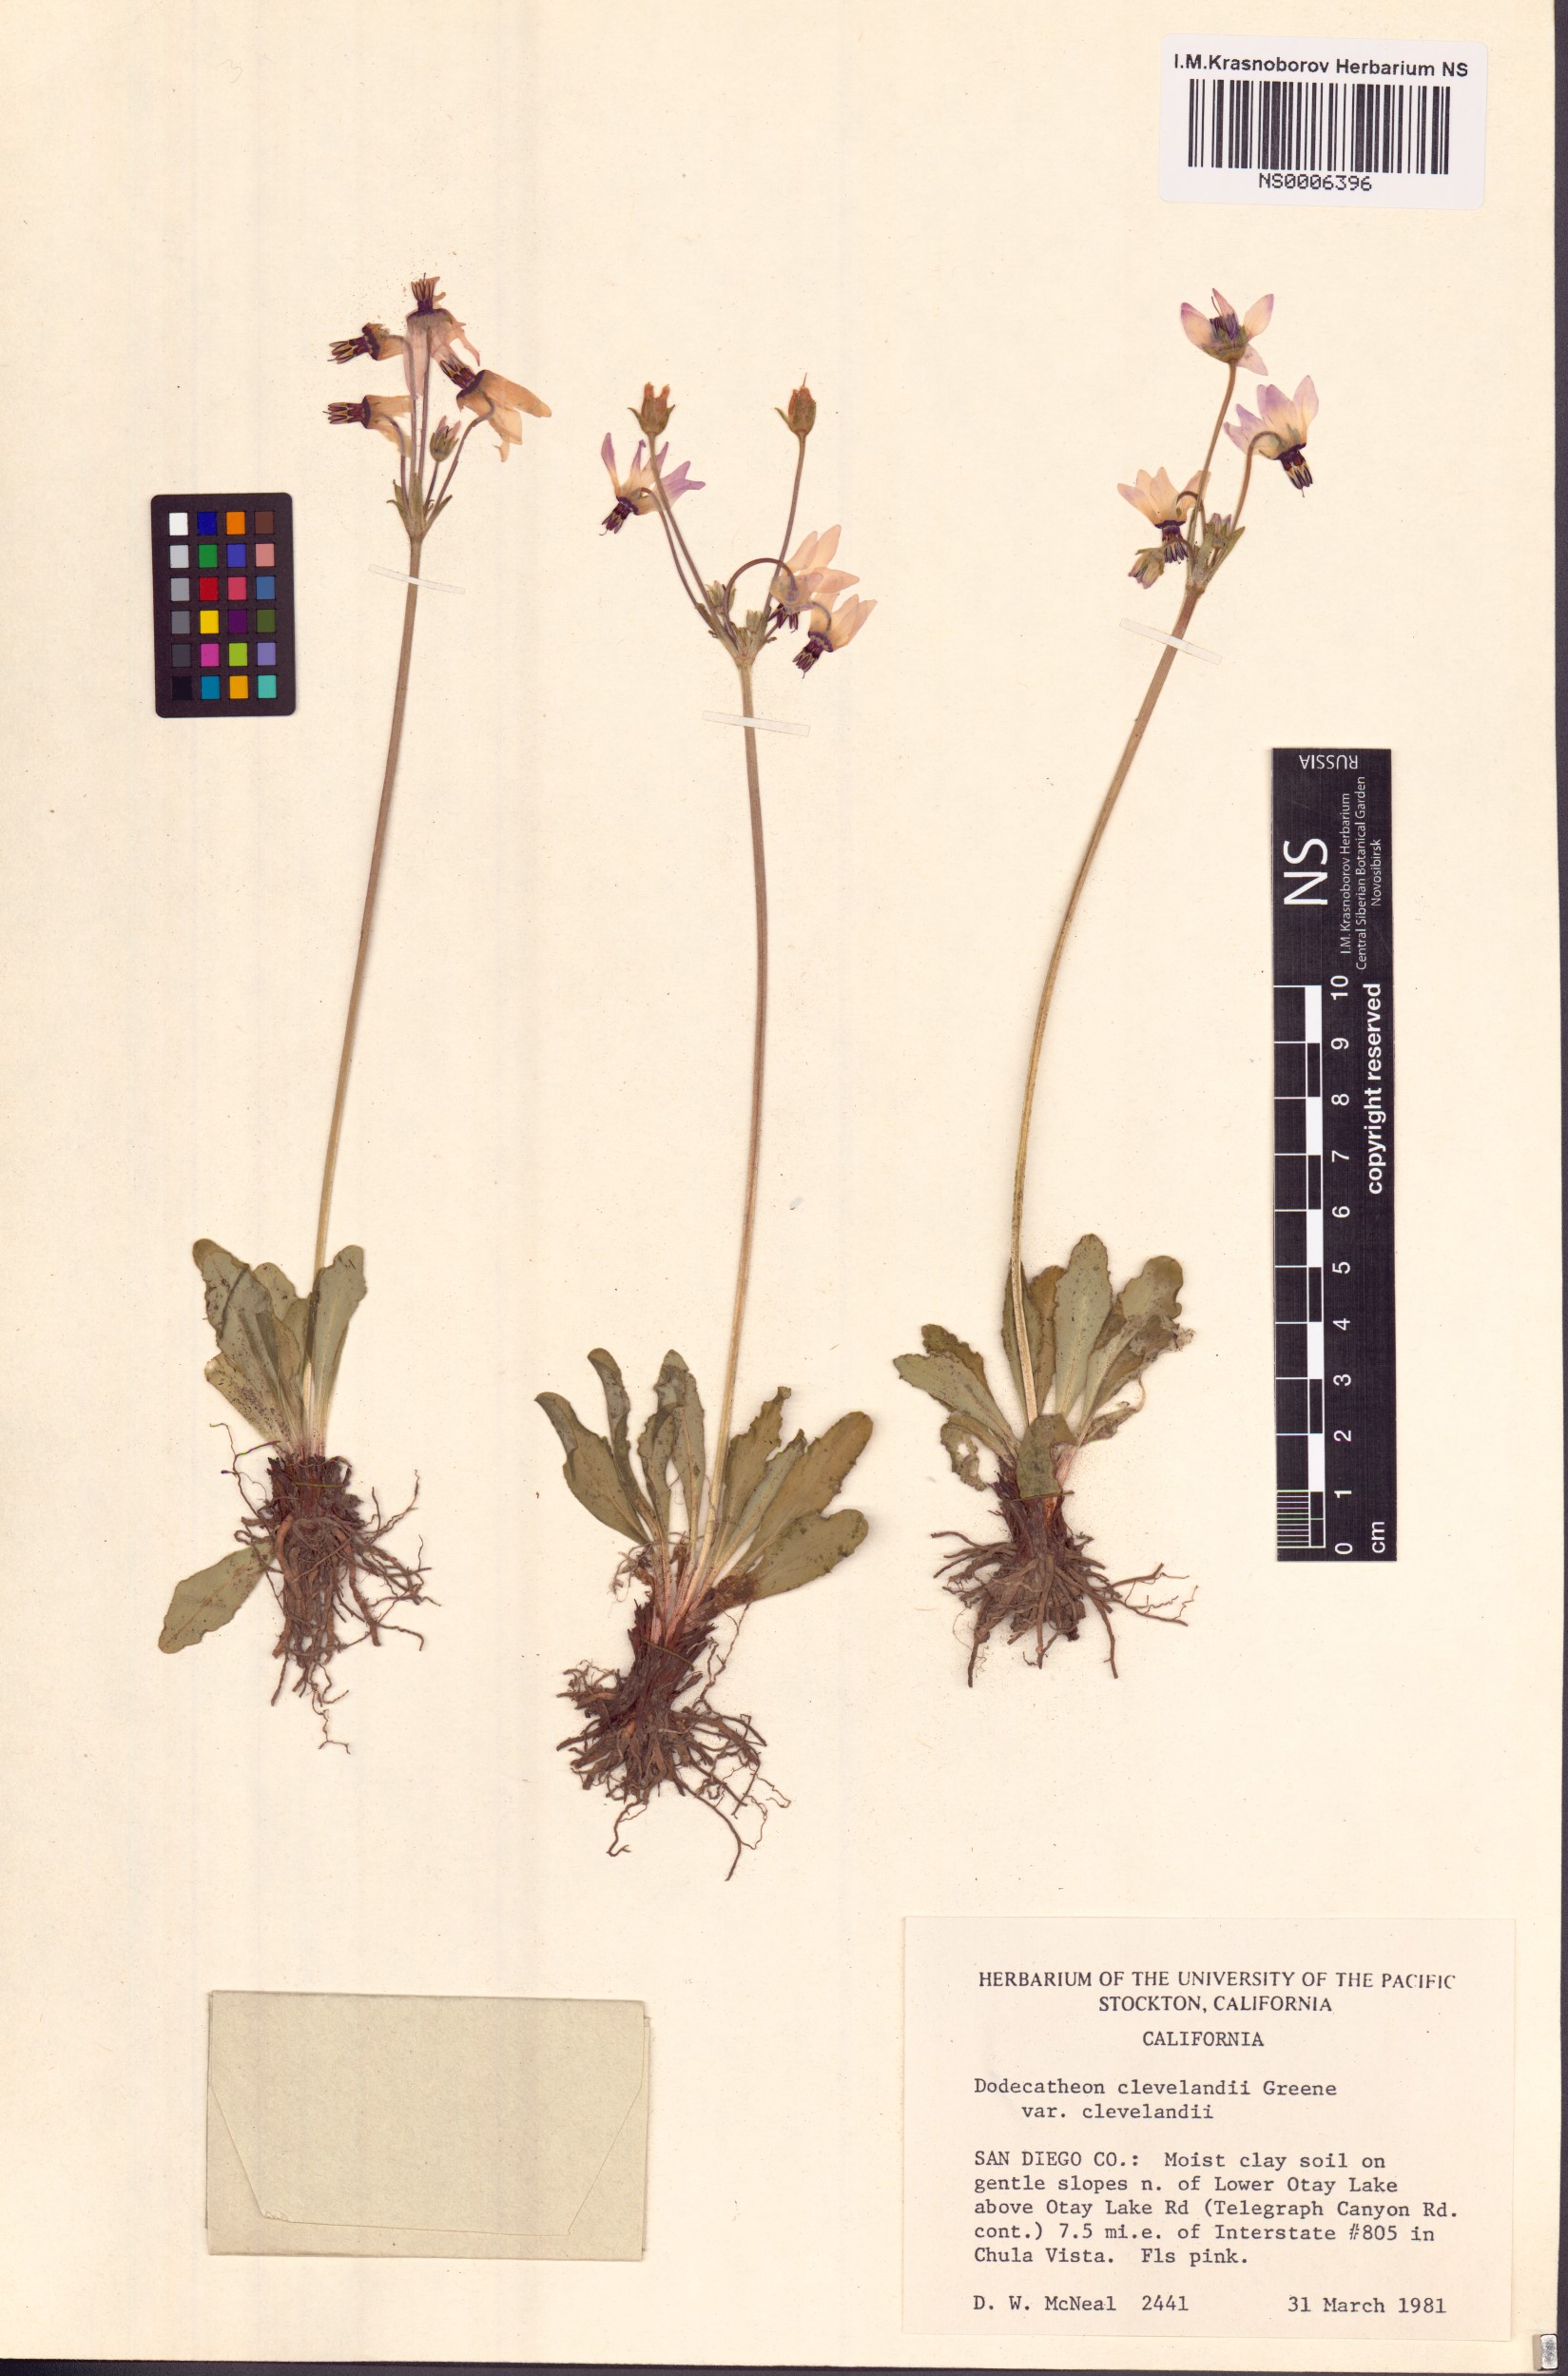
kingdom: Plantae
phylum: Tracheophyta
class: Magnoliopsida
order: Ericales
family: Primulaceae
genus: Dodecatheon
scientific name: Dodecatheon clevelandii
